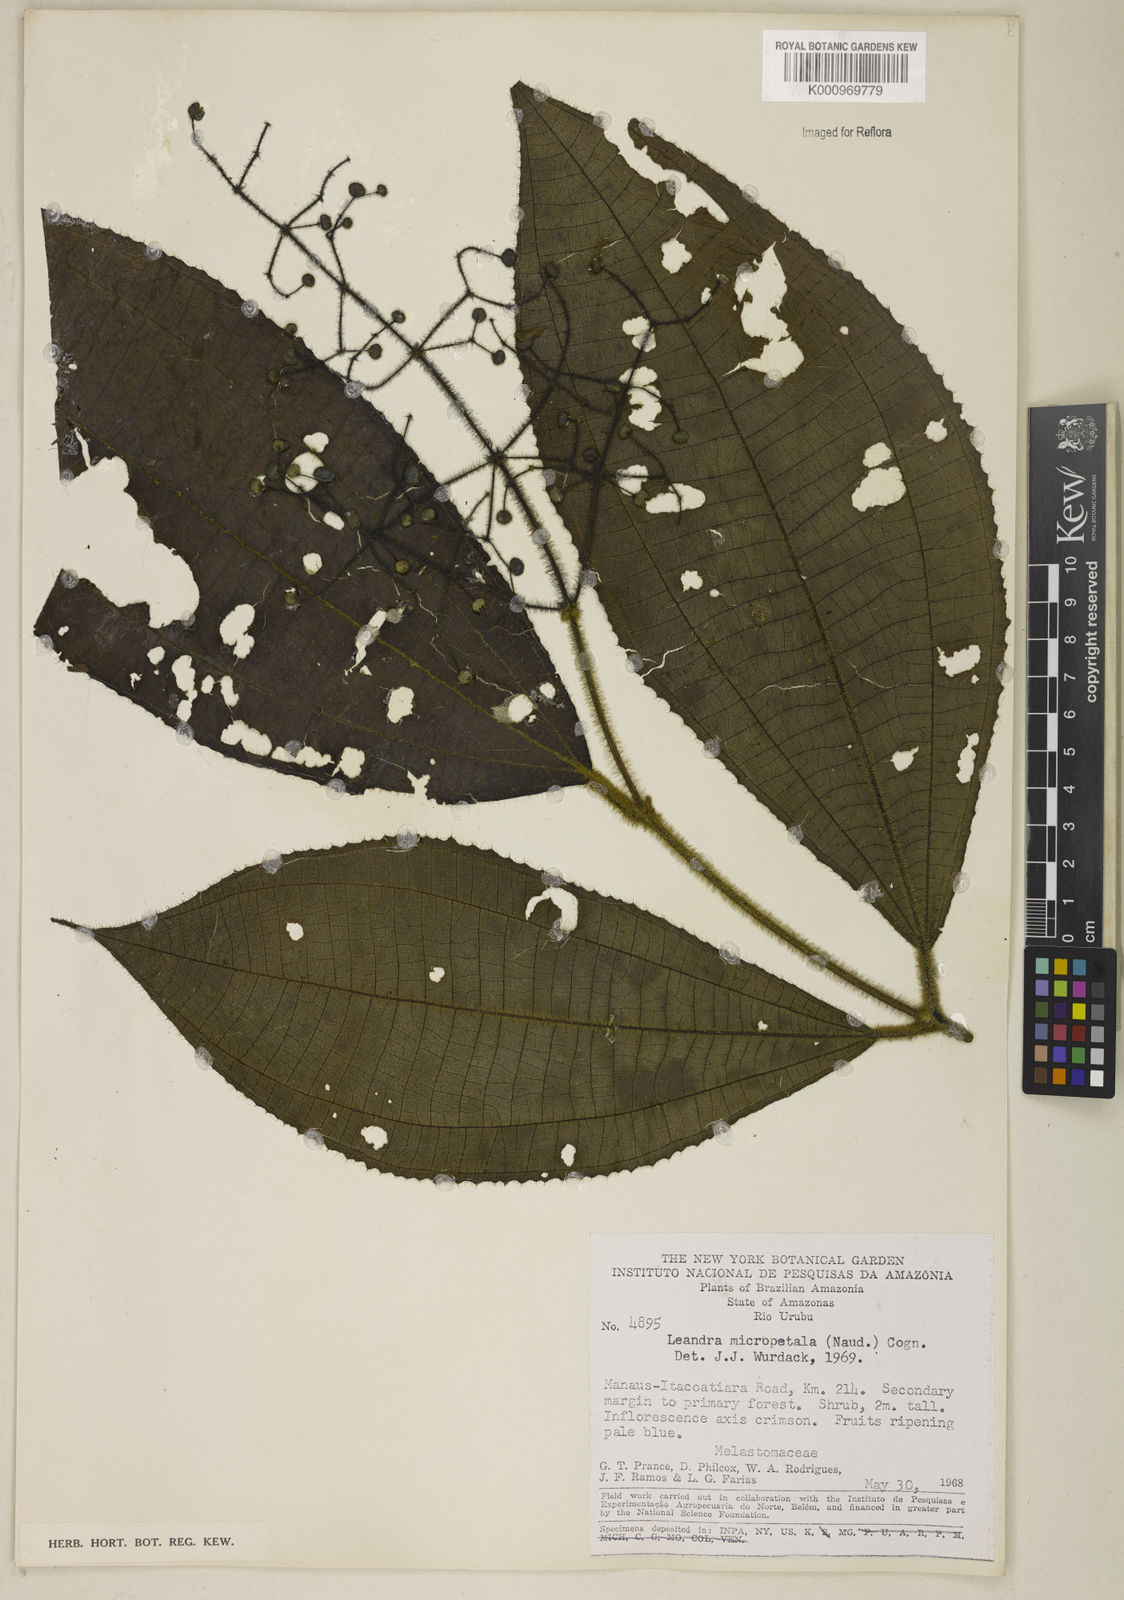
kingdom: Plantae
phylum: Tracheophyta
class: Magnoliopsida
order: Myrtales
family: Melastomataceae
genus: Miconia
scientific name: Miconia nanopetala
